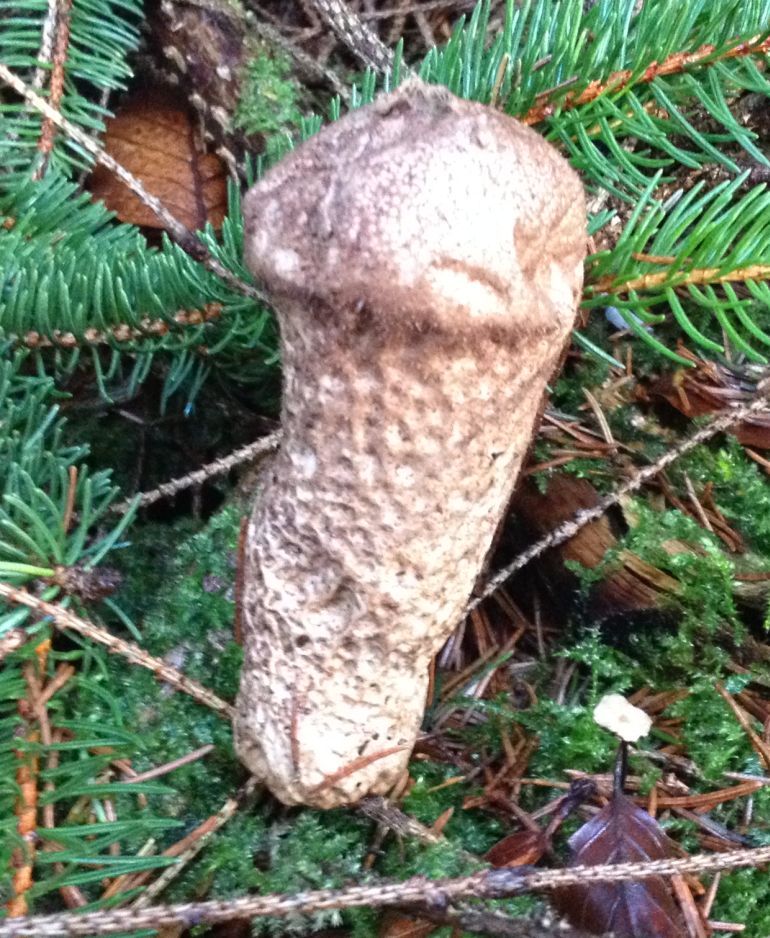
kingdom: Fungi
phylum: Basidiomycota
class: Agaricomycetes
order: Agaricales
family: Lycoperdaceae
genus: Lycoperdon
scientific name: Lycoperdon perlatum
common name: krystal-støvbold
